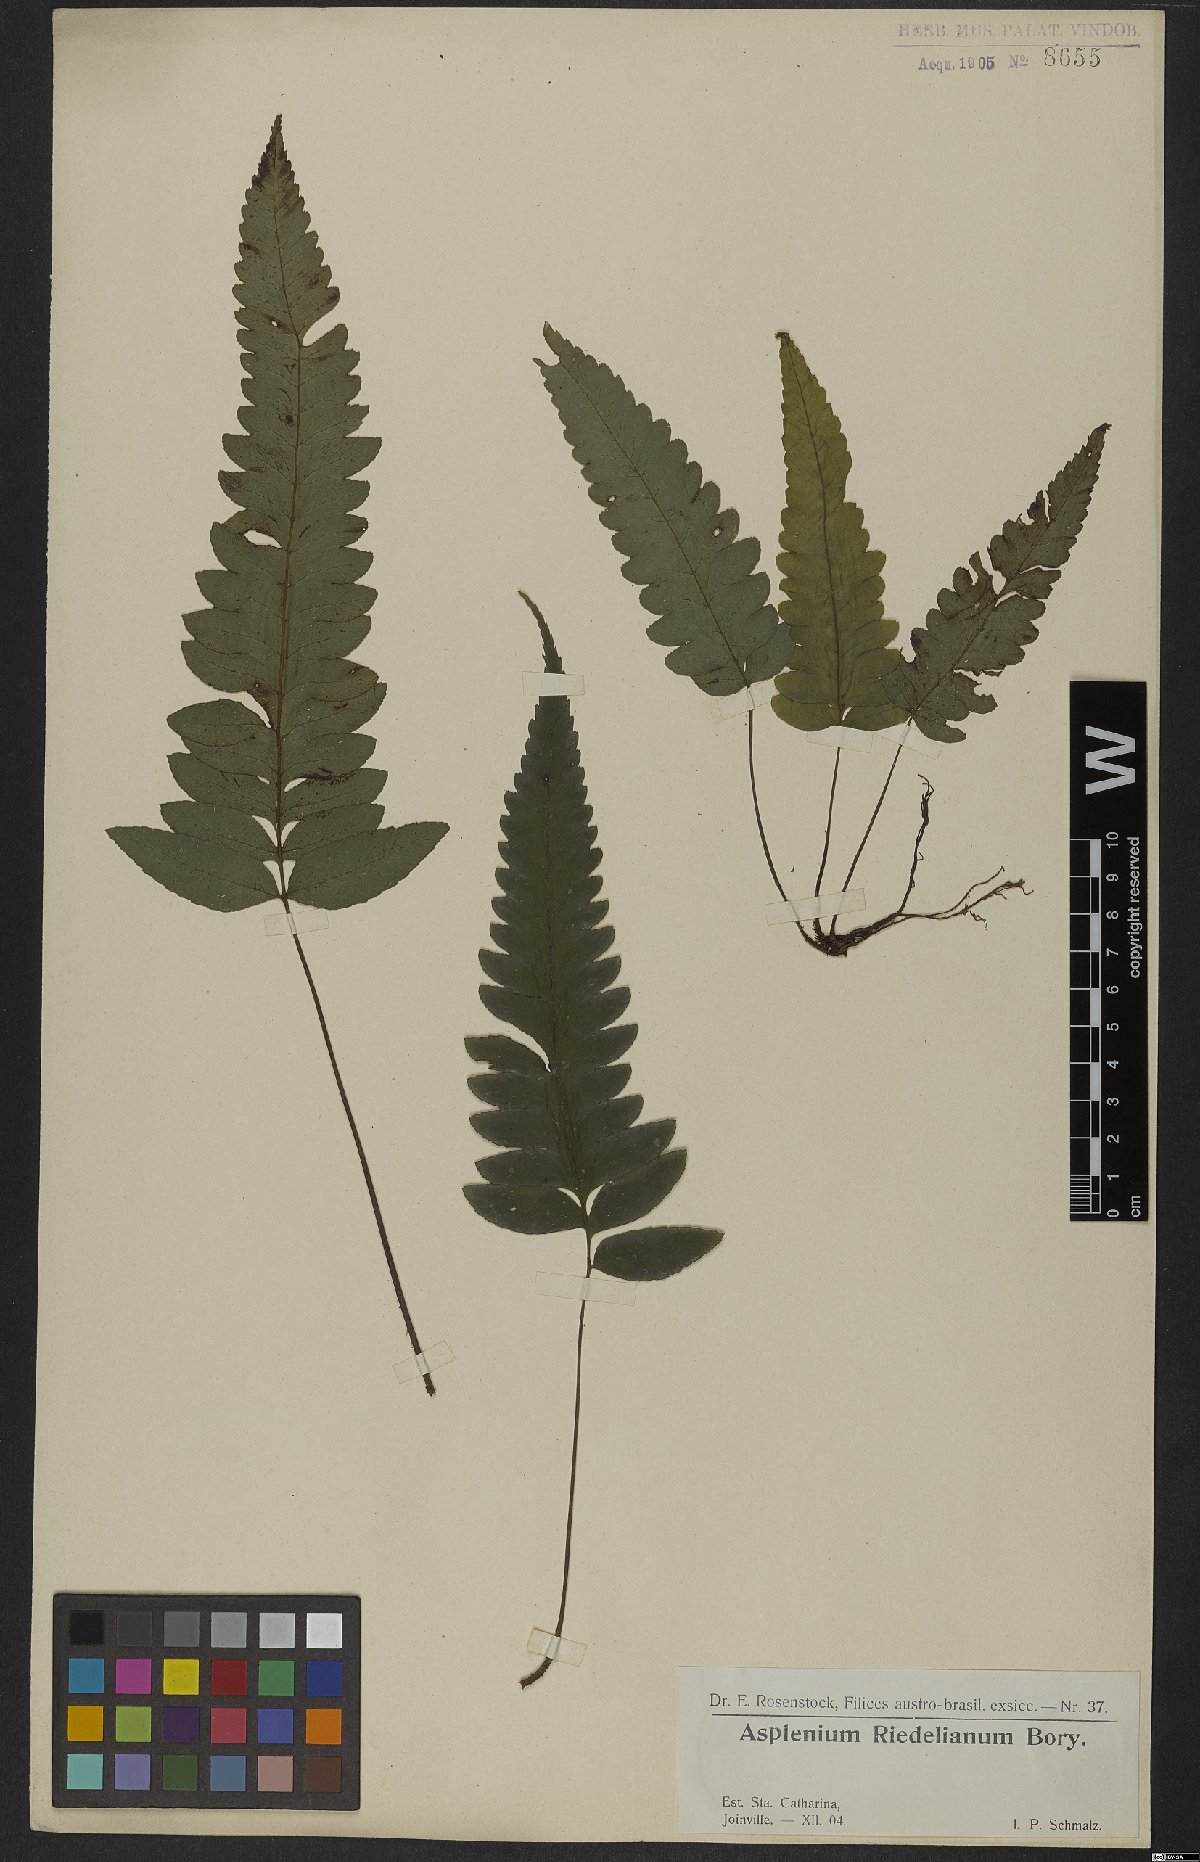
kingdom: Plantae
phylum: Tracheophyta
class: Polypodiopsida
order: Polypodiales
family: Athyriaceae
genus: Diplazium
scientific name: Diplazium riedelianum
